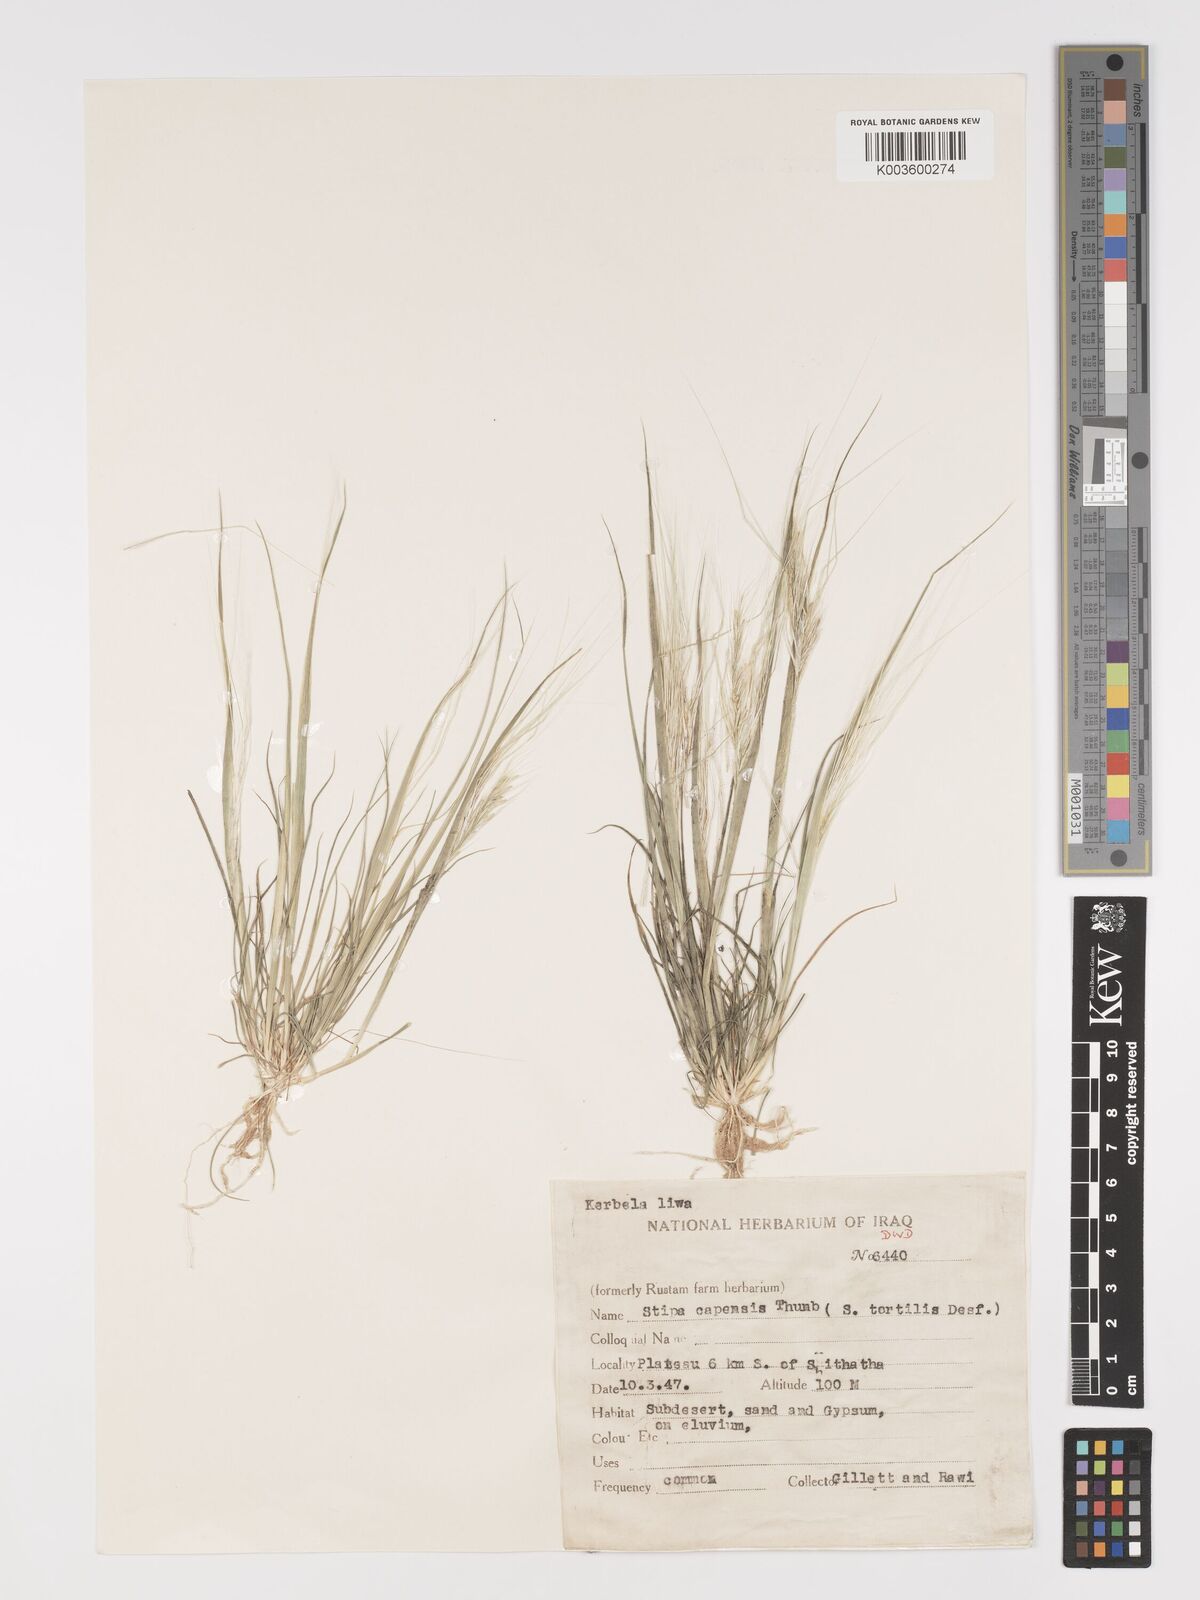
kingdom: Plantae
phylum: Tracheophyta
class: Liliopsida
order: Poales
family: Poaceae
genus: Stipellula
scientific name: Stipellula capensis
